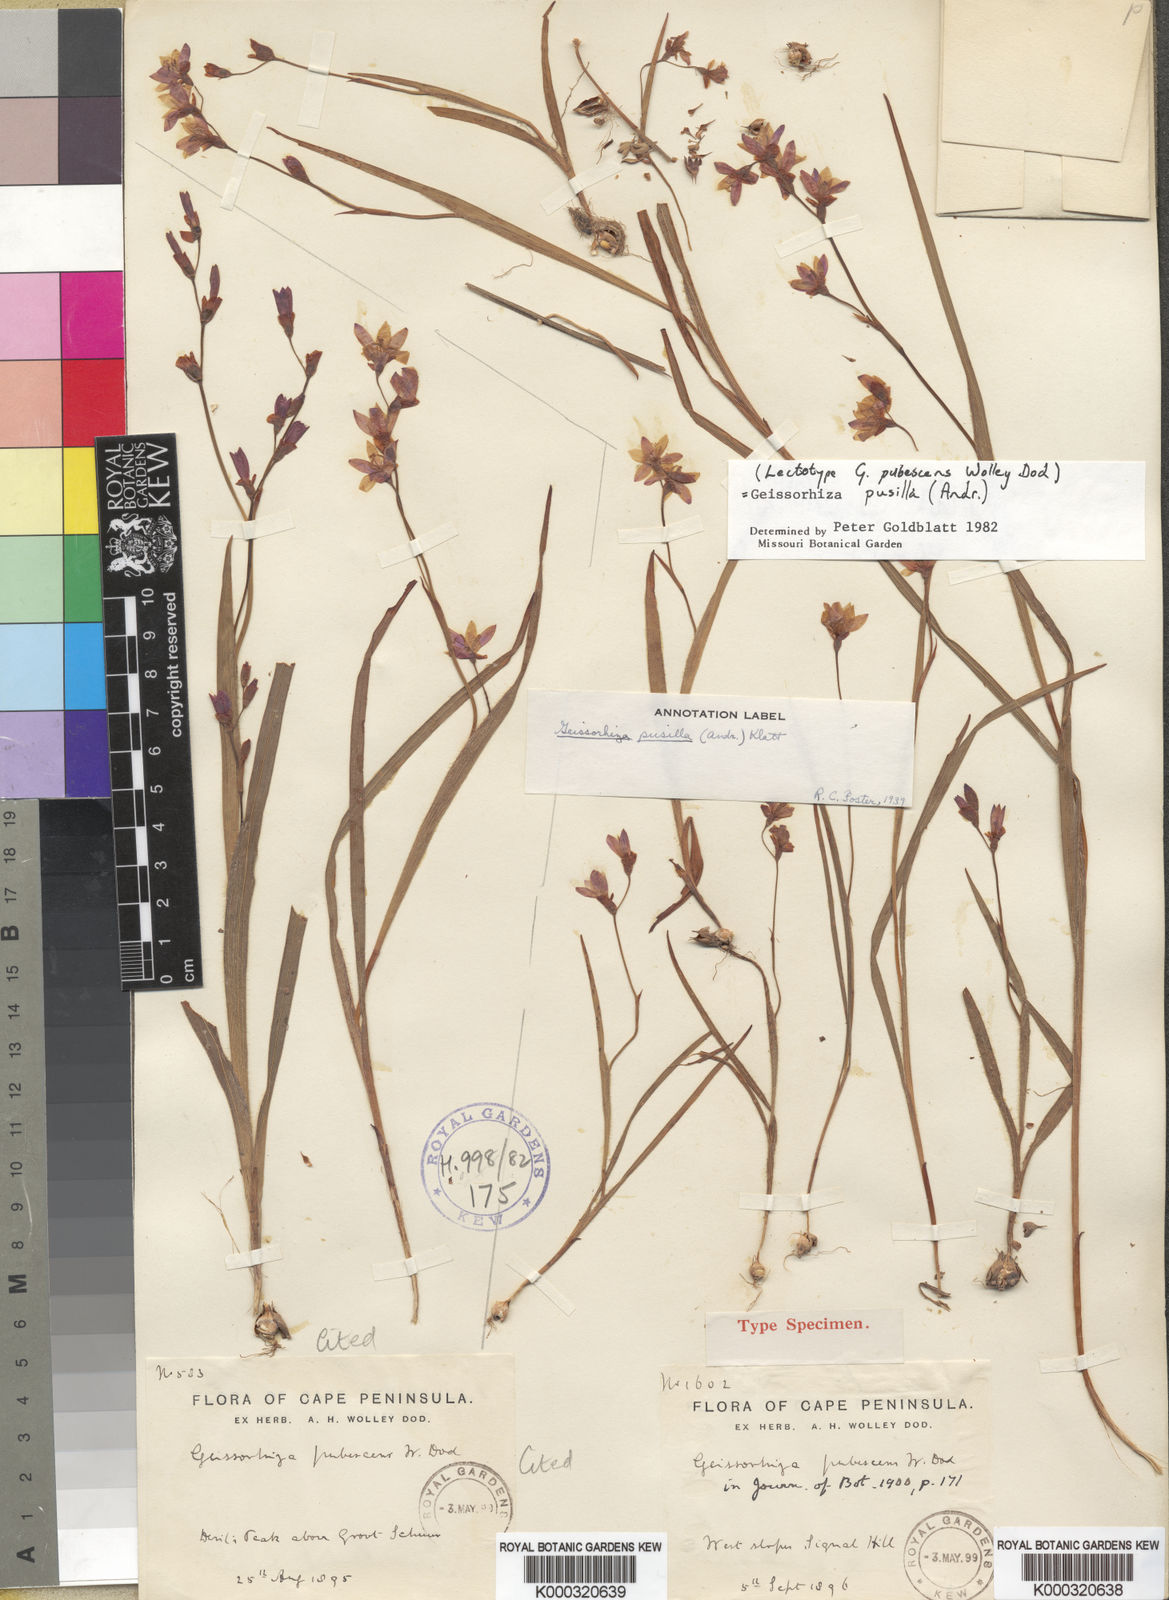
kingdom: Plantae
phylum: Tracheophyta
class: Liliopsida
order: Asparagales
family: Iridaceae
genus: Geissorhiza
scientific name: Geissorhiza pusilla
